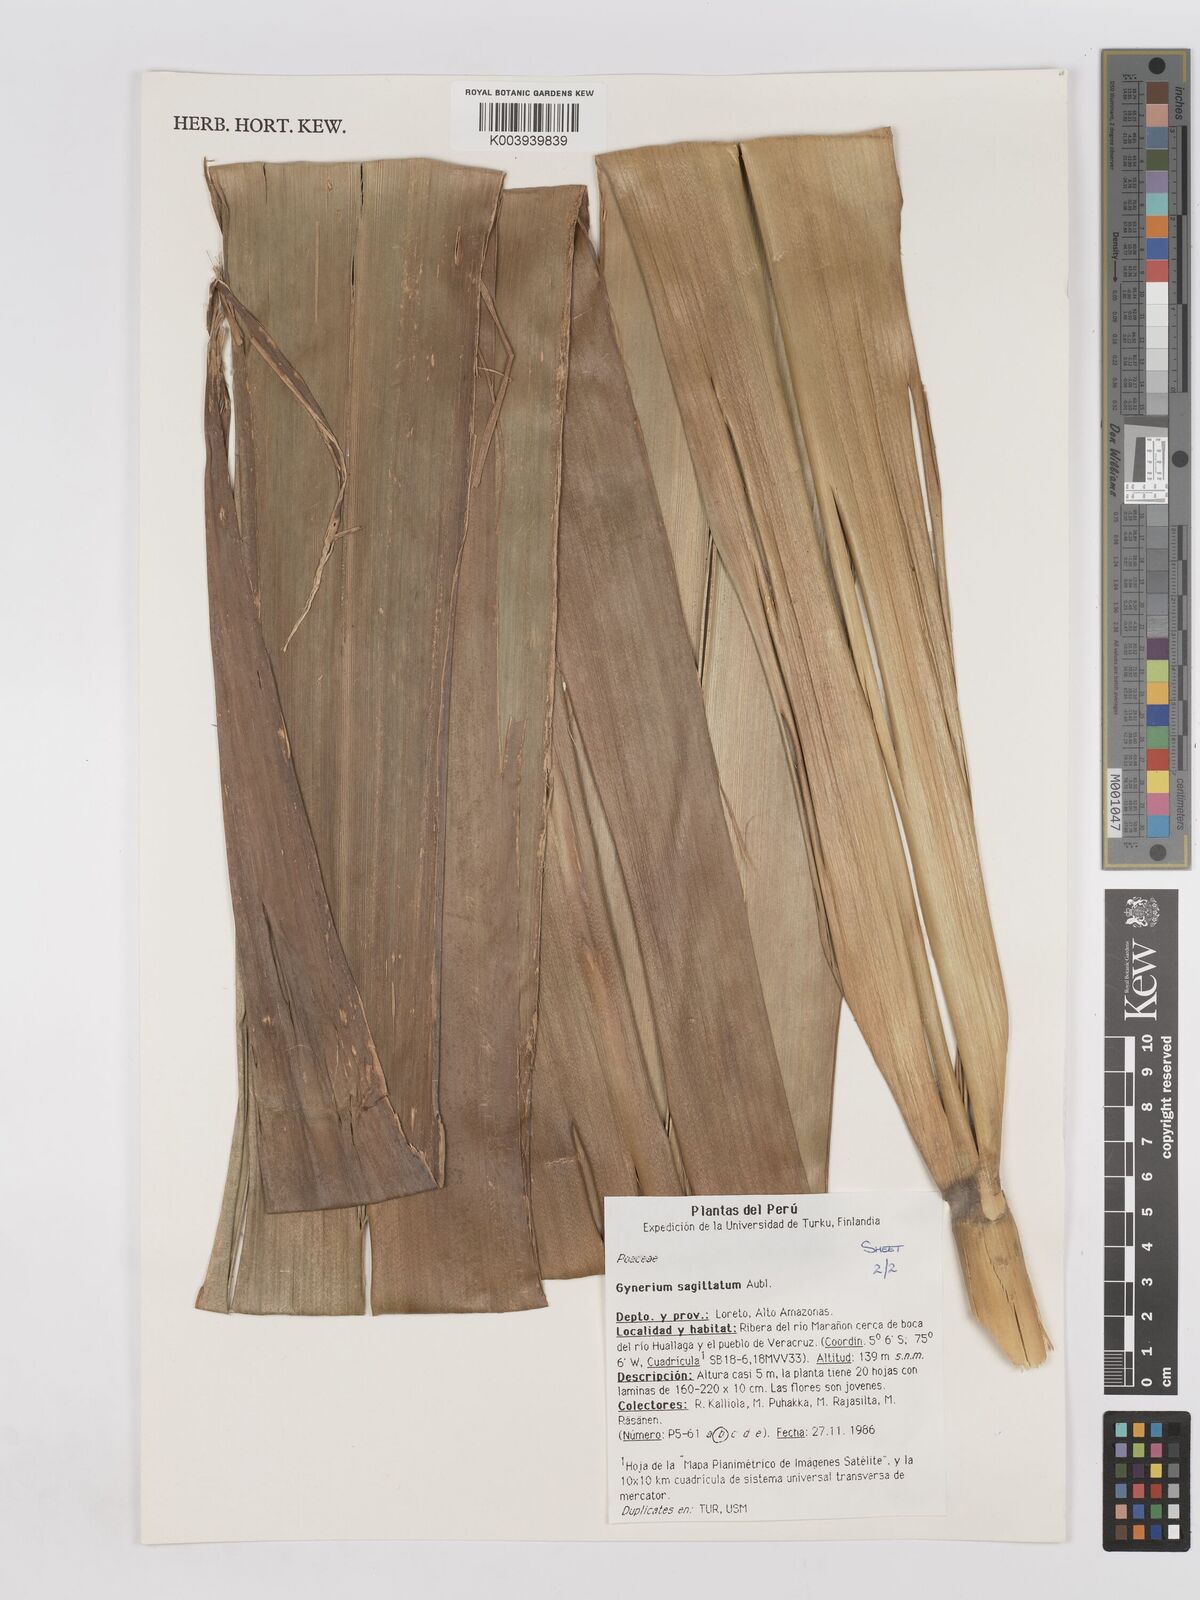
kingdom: Plantae
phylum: Tracheophyta
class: Liliopsida
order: Poales
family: Poaceae
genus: Gynerium
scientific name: Gynerium sagittatum
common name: Wild cane
